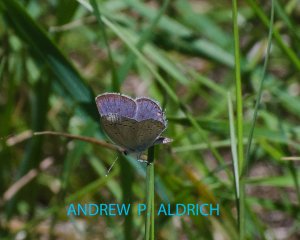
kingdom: Animalia
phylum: Arthropoda
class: Insecta
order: Lepidoptera
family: Lycaenidae
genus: Elkalyce
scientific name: Elkalyce comyntas
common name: Eastern Tailed-Blue
